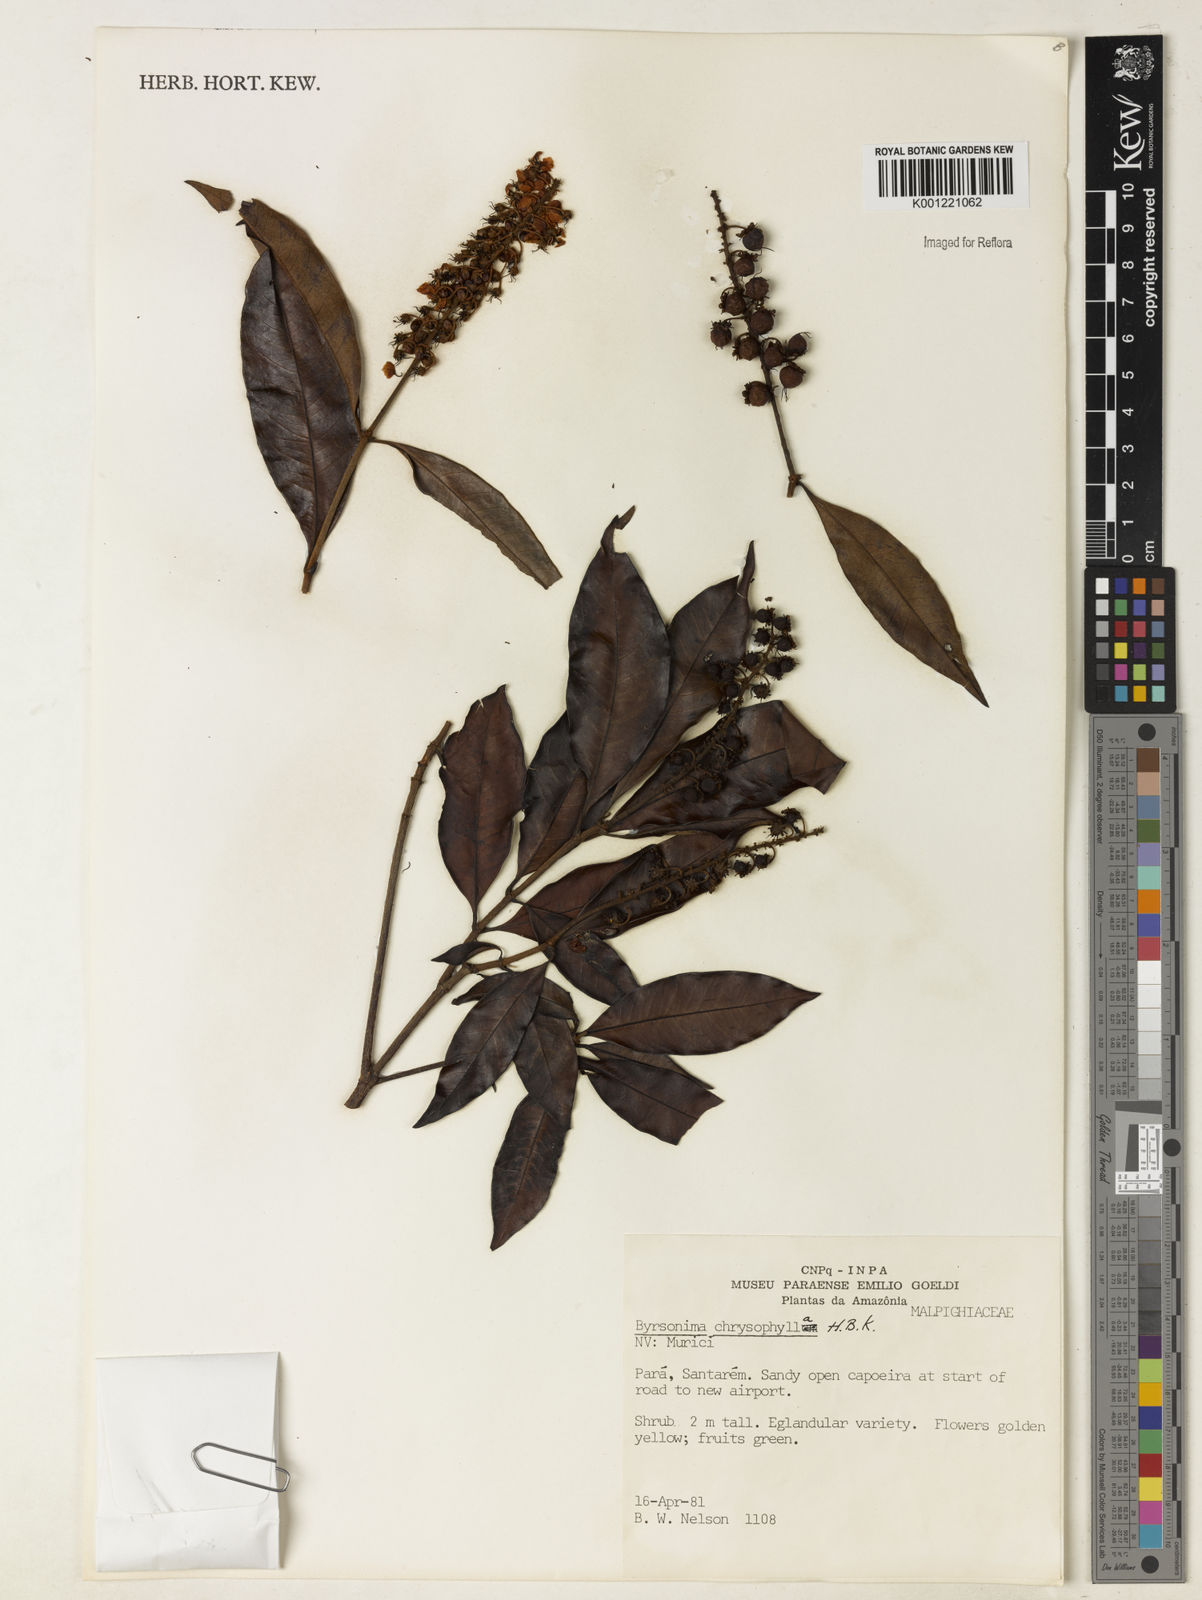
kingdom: Plantae
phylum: Tracheophyta
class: Magnoliopsida
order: Malpighiales
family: Malpighiaceae
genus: Byrsonima
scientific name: Byrsonima chrysophylla
